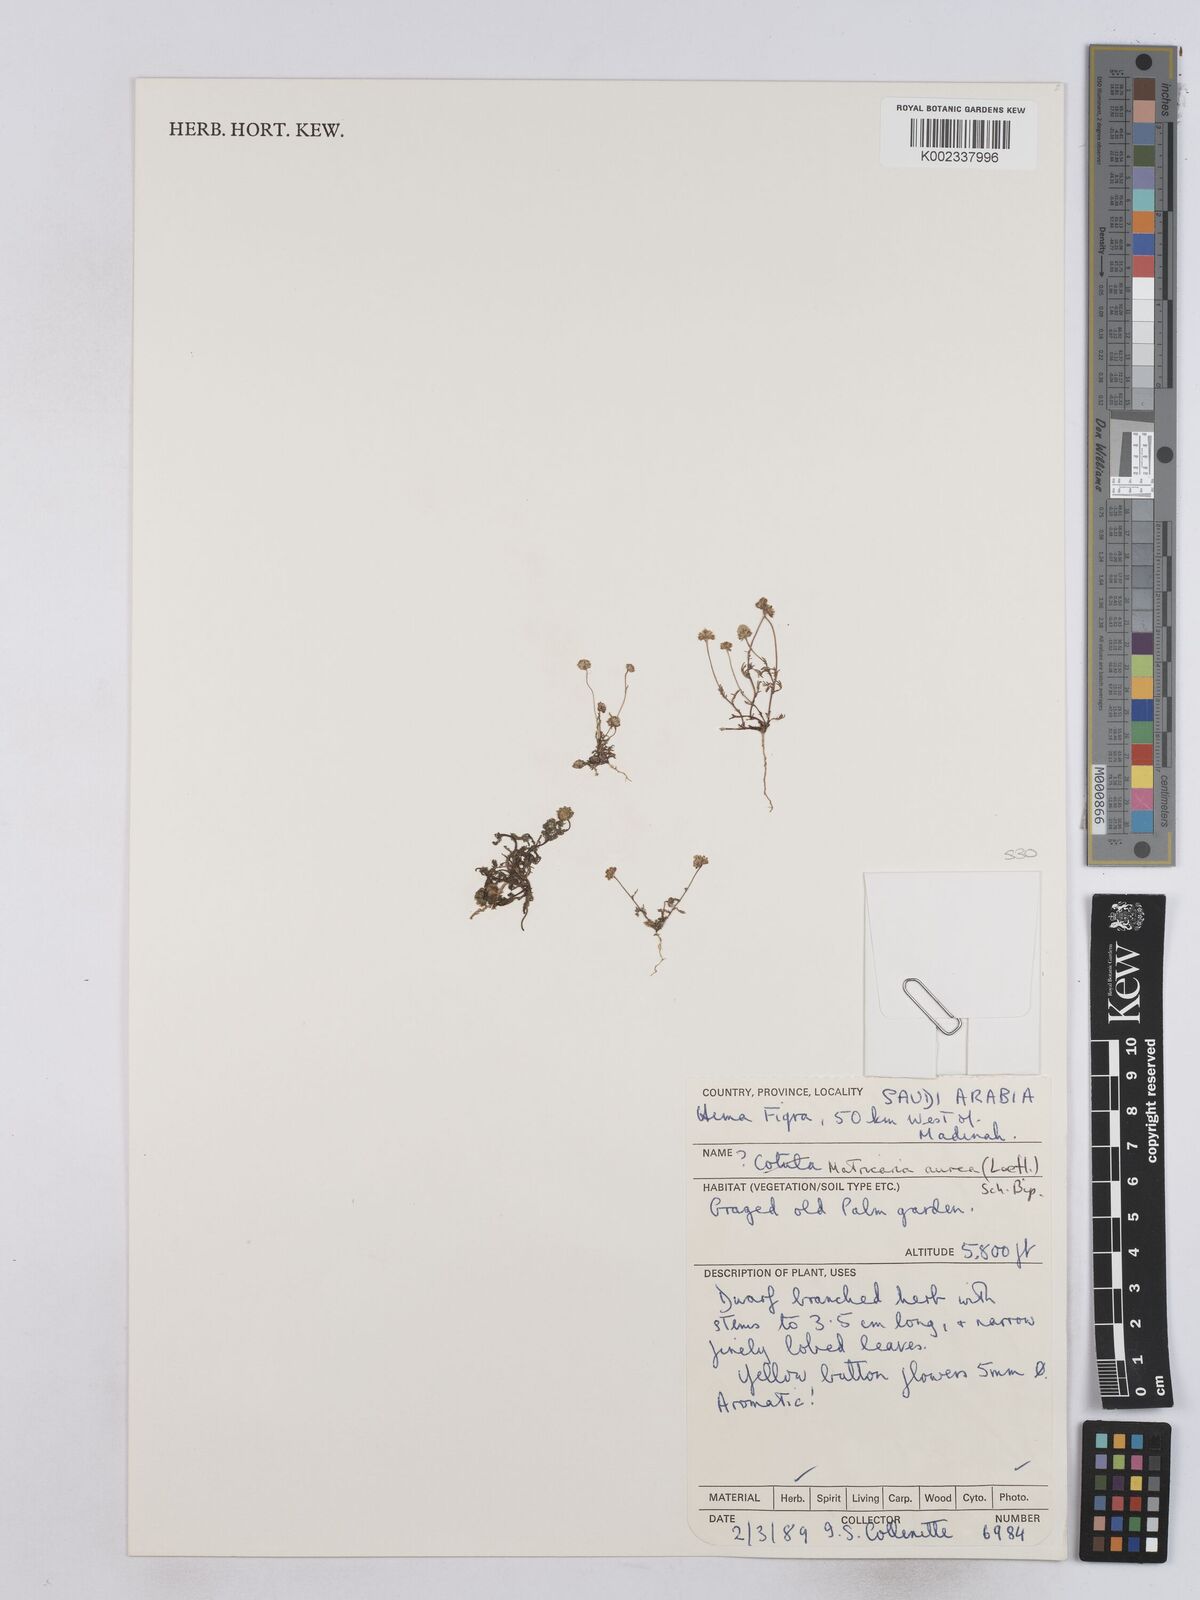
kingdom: Plantae
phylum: Tracheophyta
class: Magnoliopsida
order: Asterales
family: Asteraceae
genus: Matricaria
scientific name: Matricaria aurea
